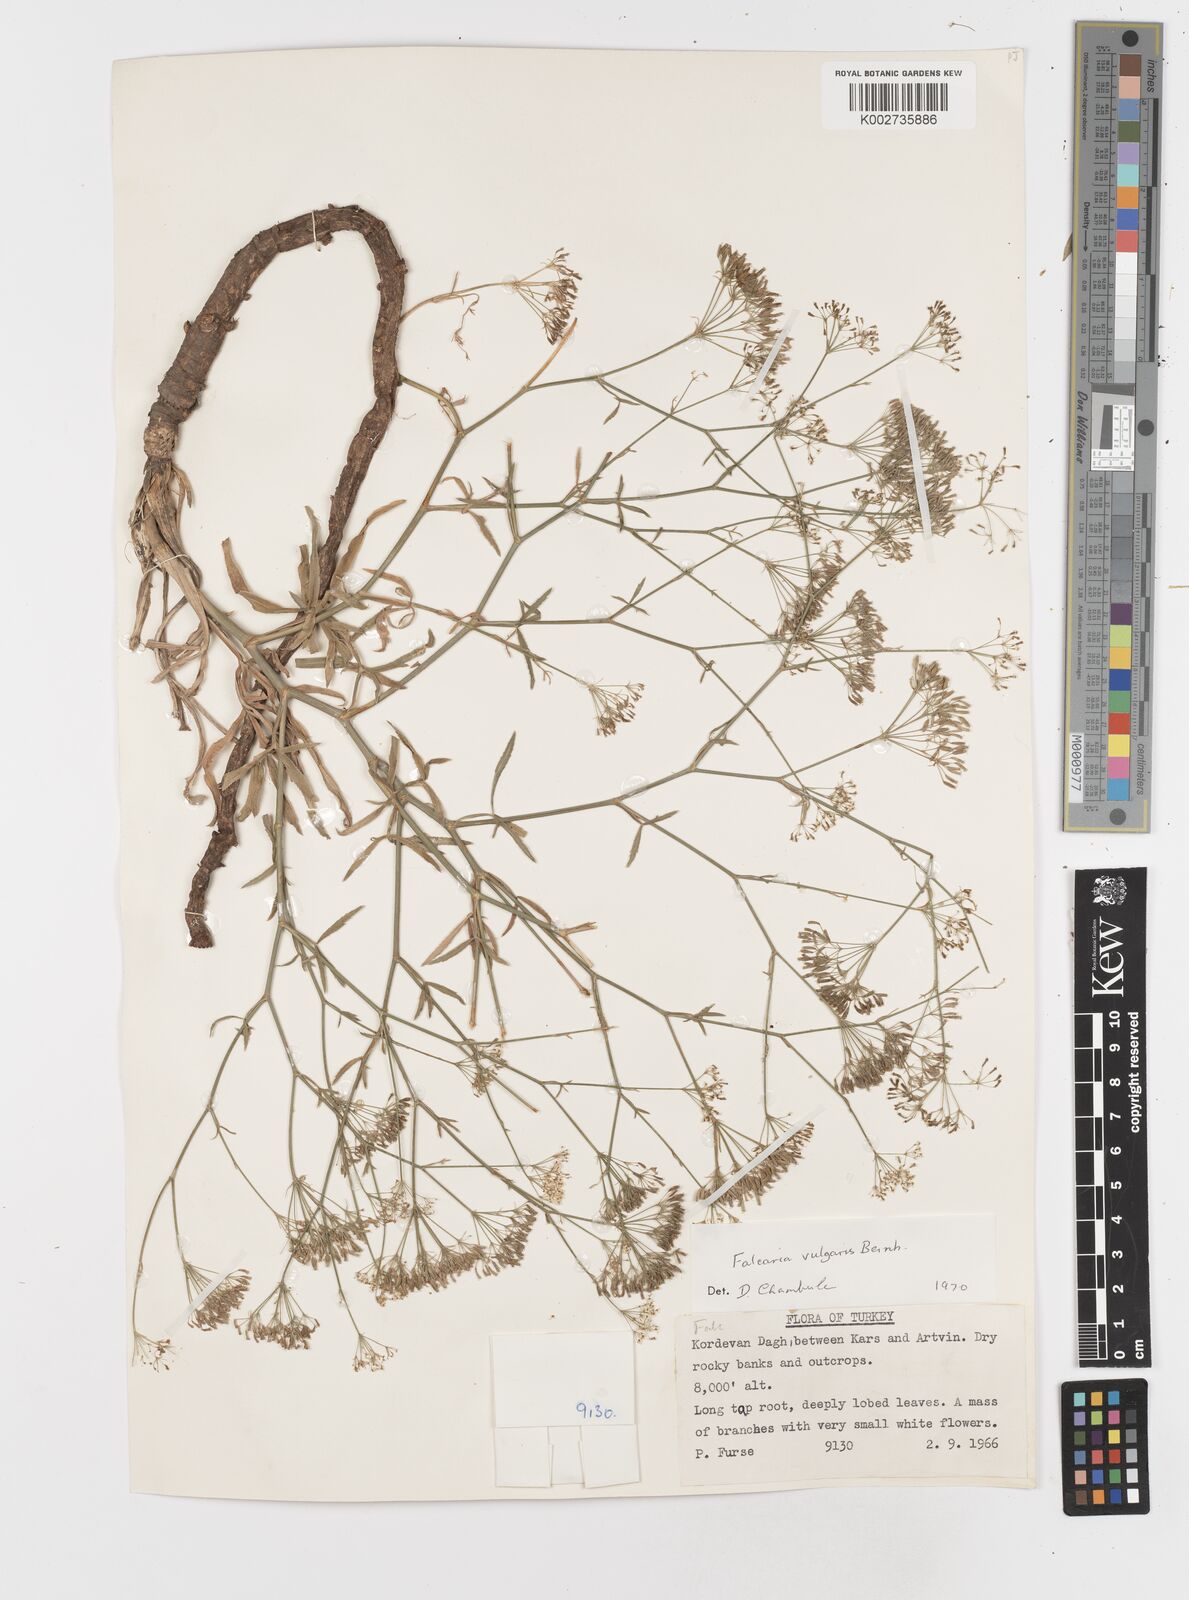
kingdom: Plantae
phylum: Tracheophyta
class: Magnoliopsida
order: Apiales
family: Apiaceae
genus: Falcaria
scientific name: Falcaria vulgaris
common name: Longleaf
